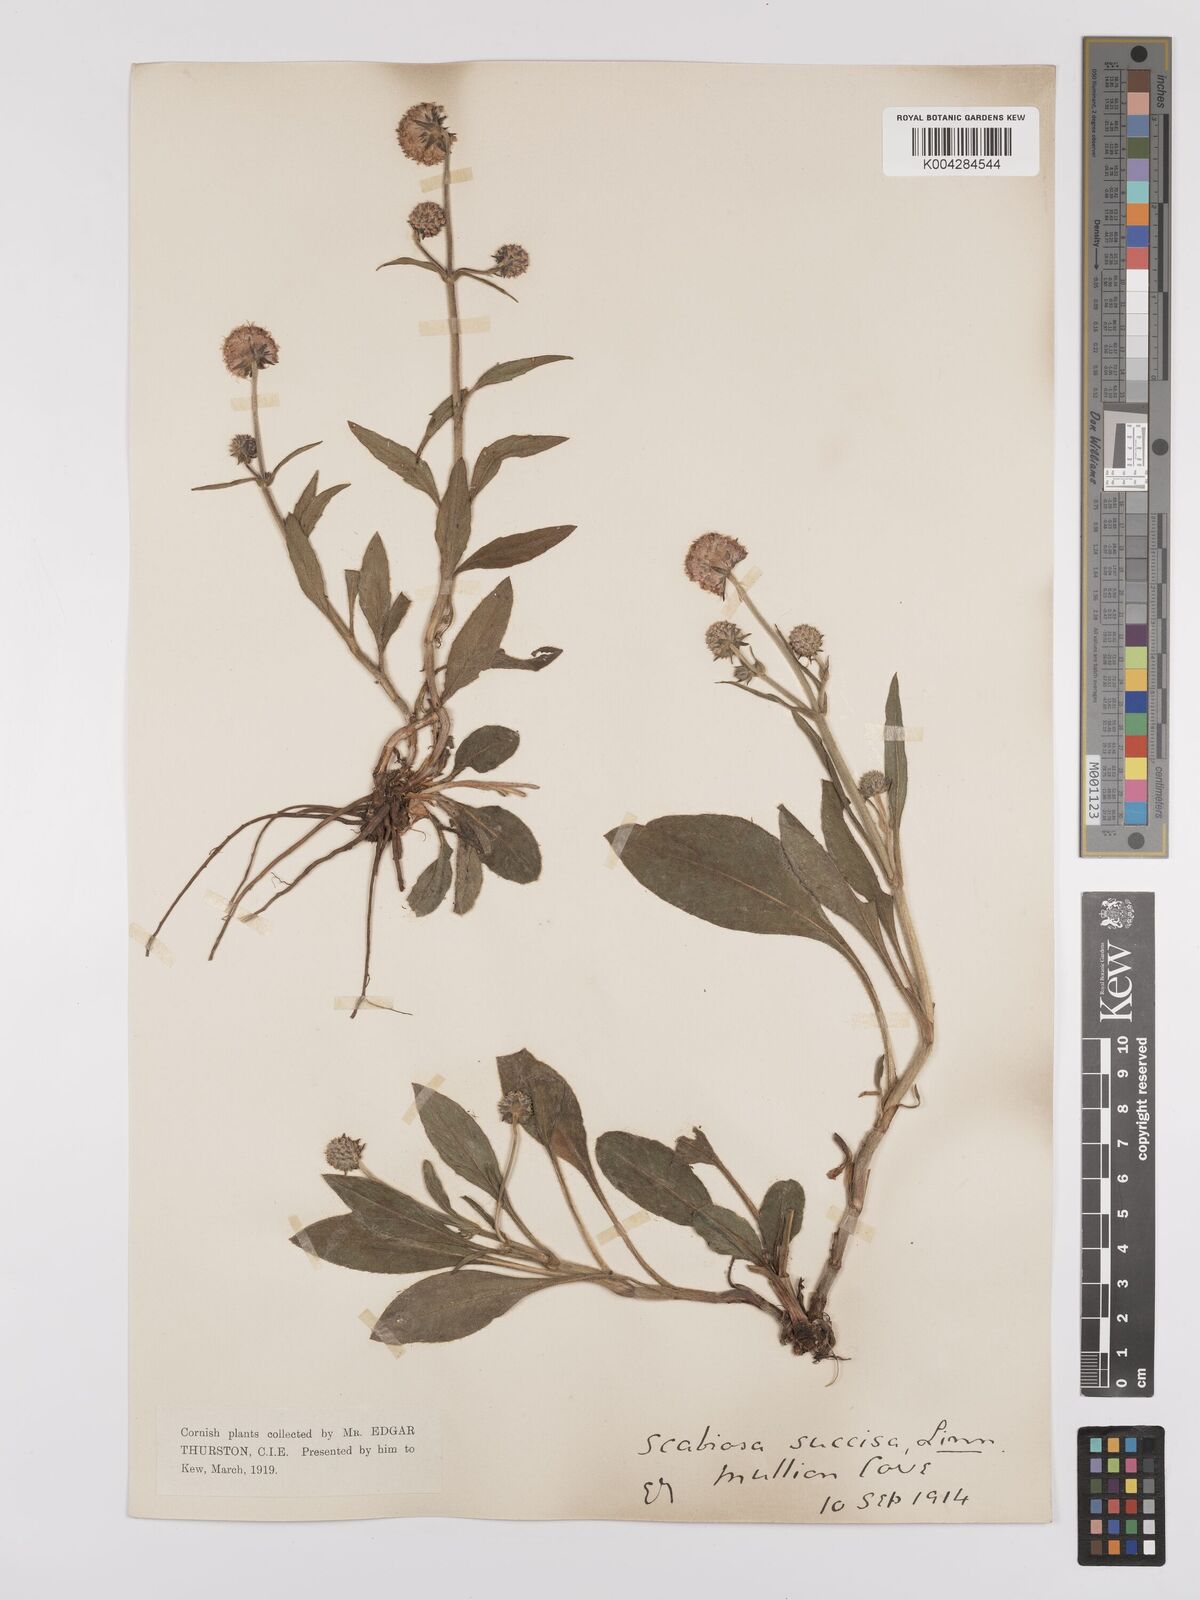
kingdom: Plantae
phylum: Tracheophyta
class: Magnoliopsida
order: Dipsacales
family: Caprifoliaceae
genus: Succisa
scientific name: Succisa pratensis
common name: Devil's-bit
